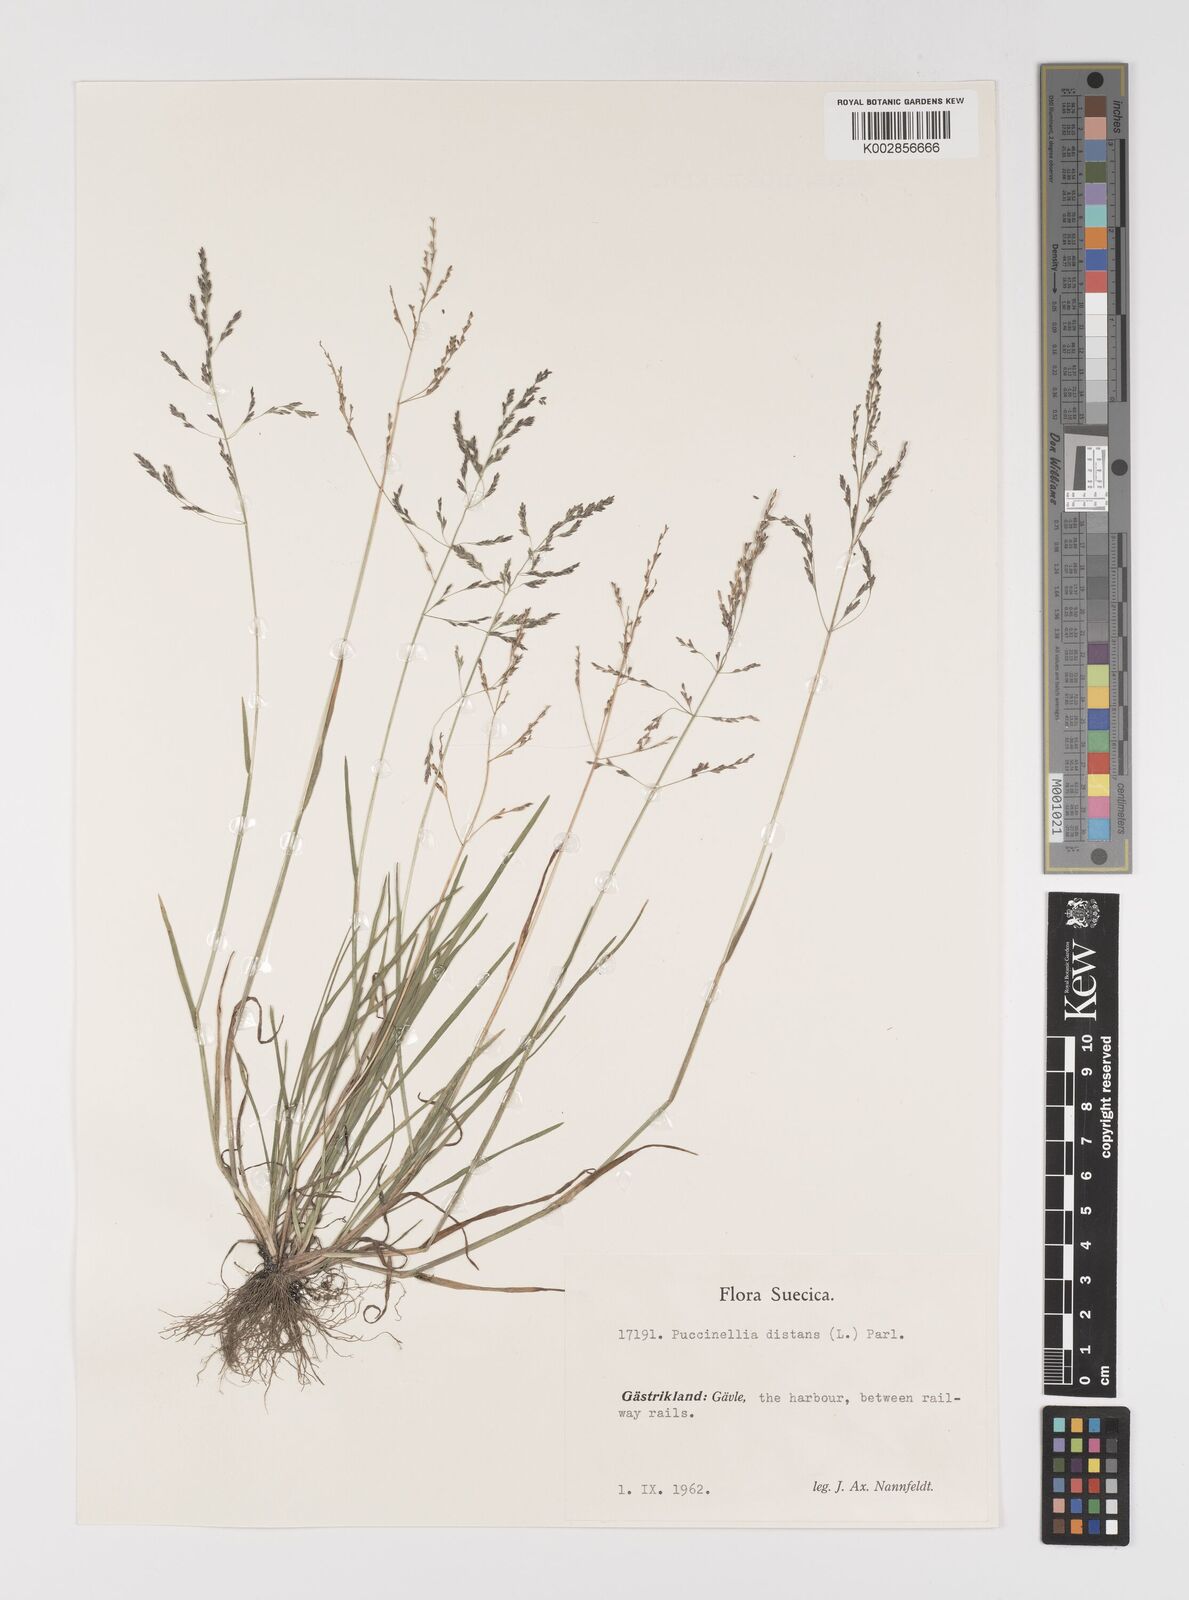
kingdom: Plantae
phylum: Tracheophyta
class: Liliopsida
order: Poales
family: Poaceae
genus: Puccinellia
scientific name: Puccinellia
